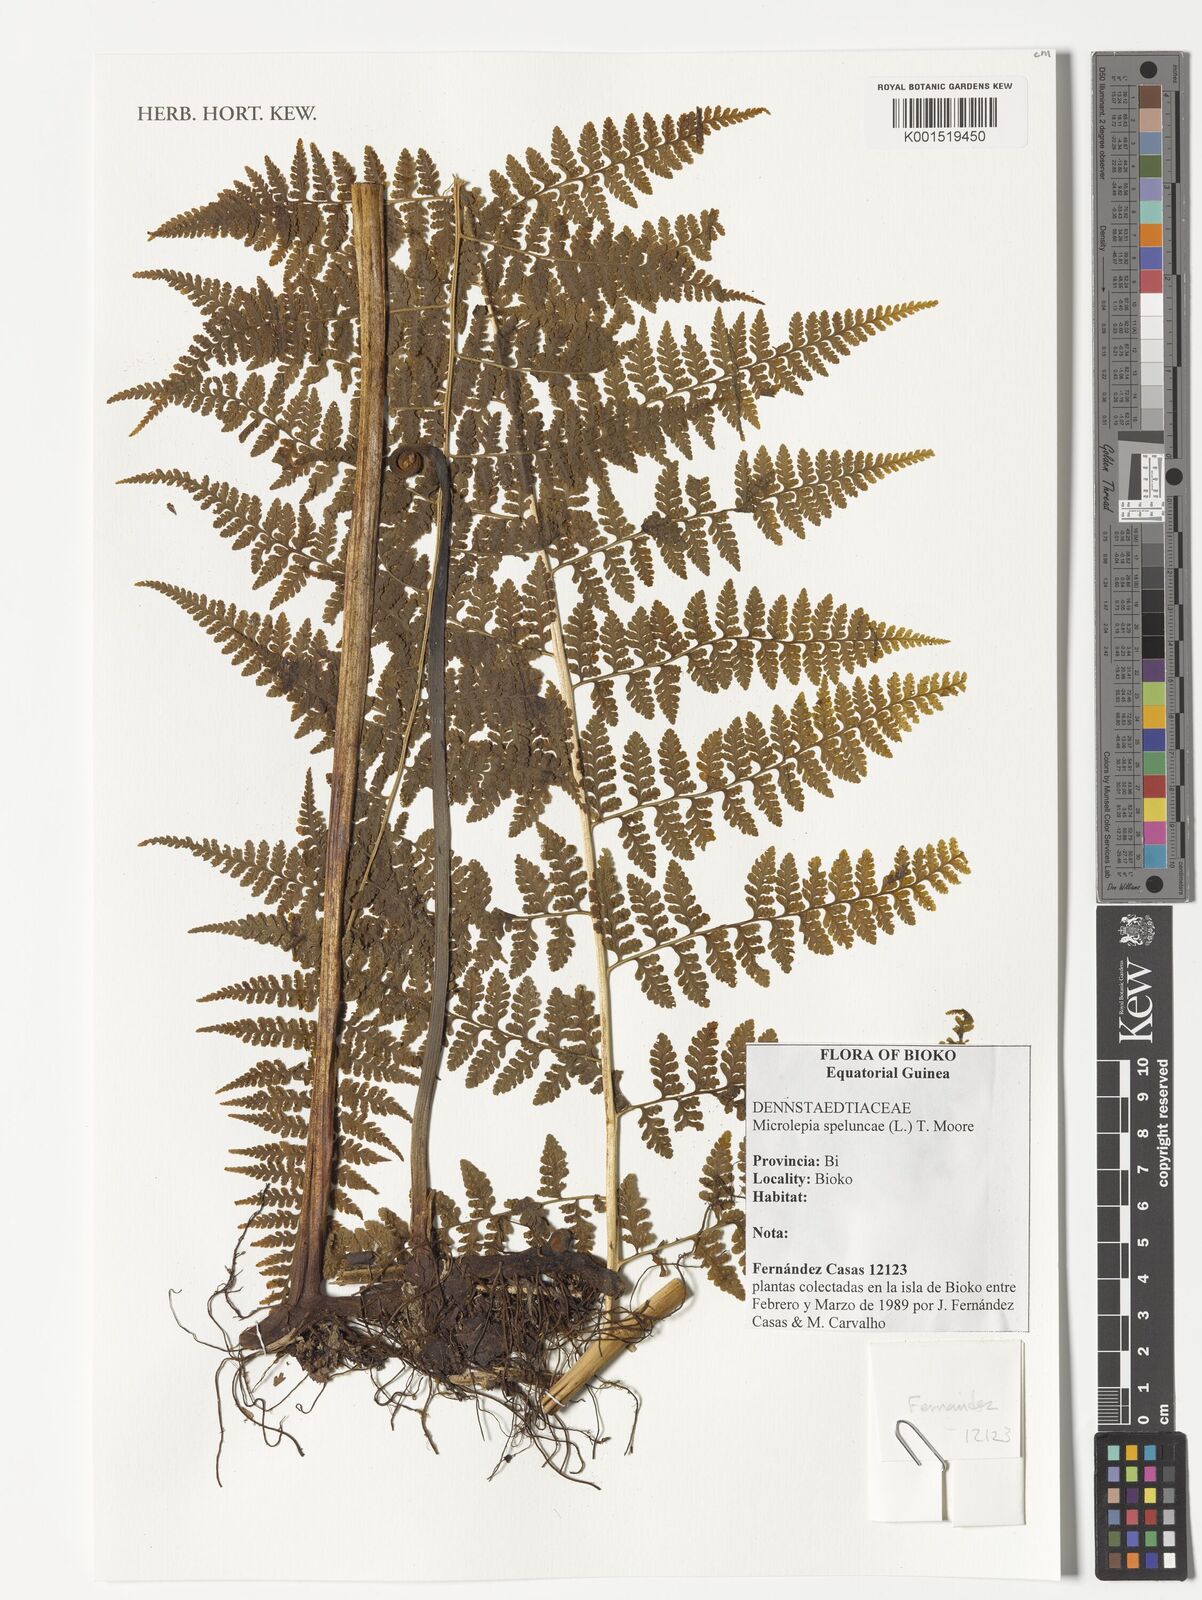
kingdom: Plantae
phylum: Tracheophyta
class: Polypodiopsida
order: Polypodiales
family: Dennstaedtiaceae
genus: Microlepia
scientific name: Microlepia speluncae
